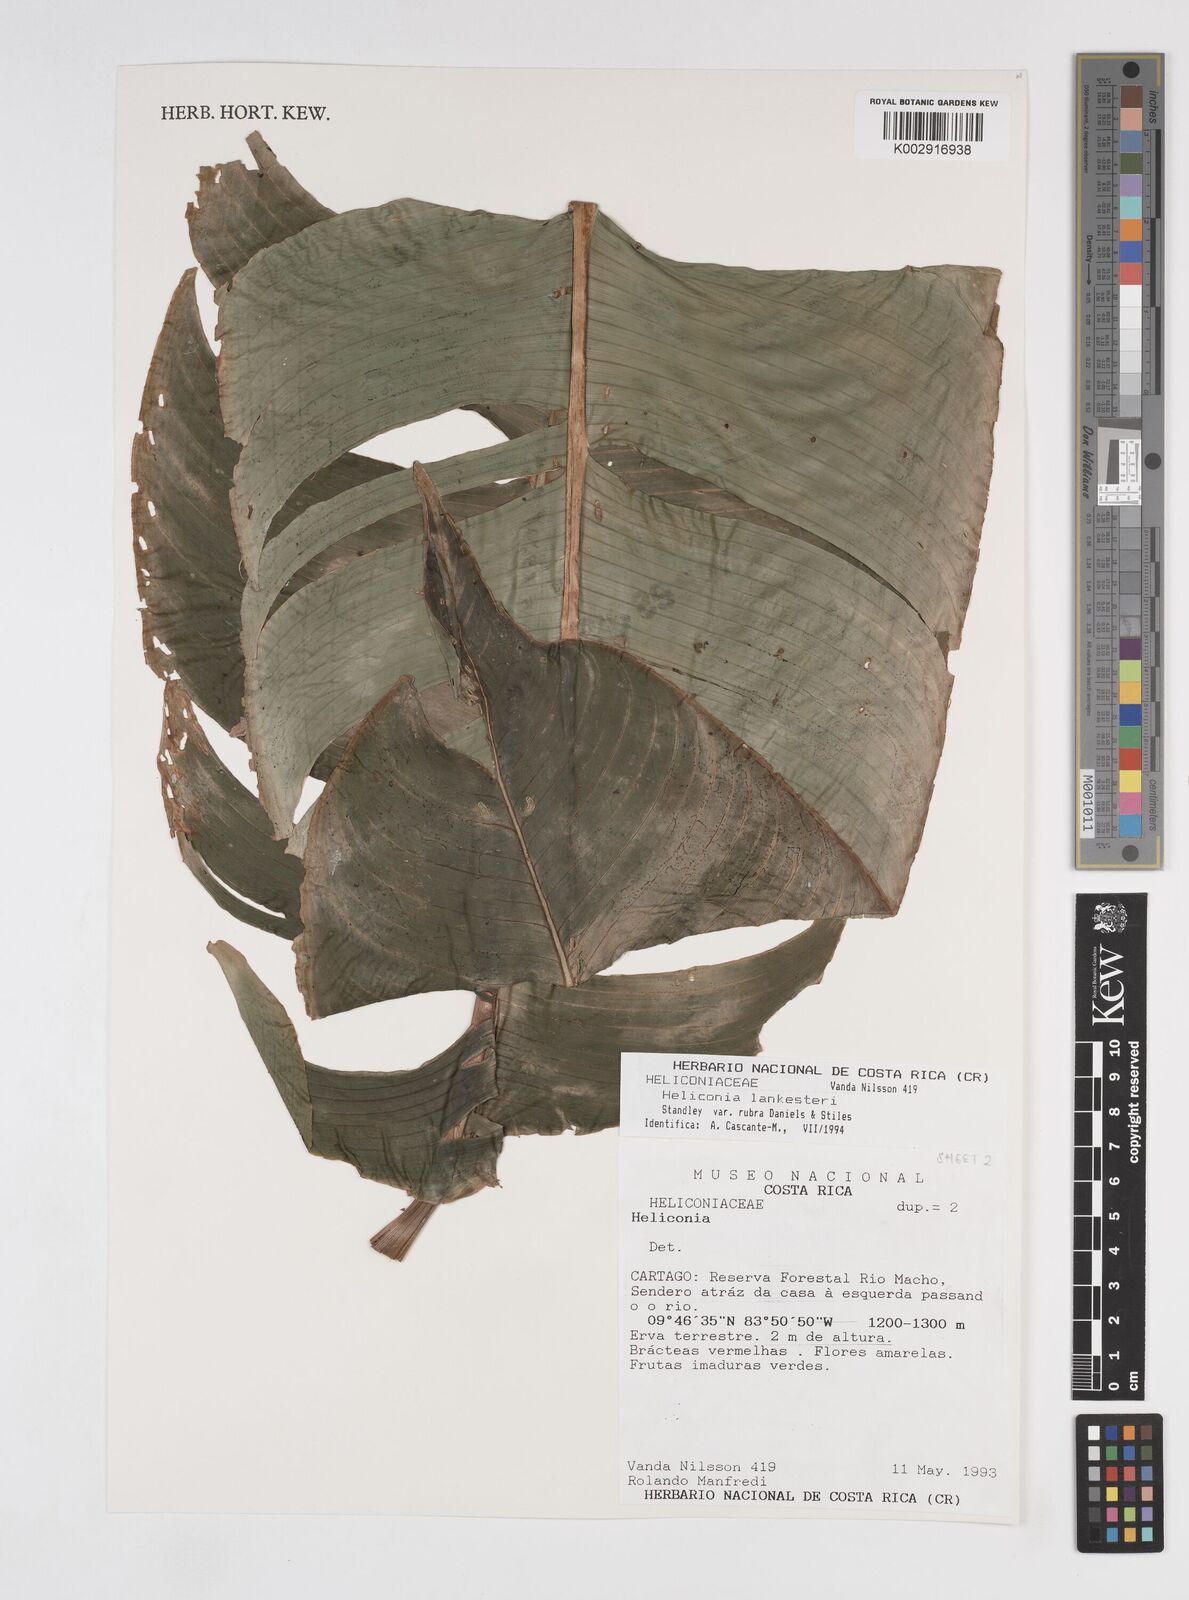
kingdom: Plantae
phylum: Tracheophyta
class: Liliopsida
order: Zingiberales
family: Heliconiaceae
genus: Heliconia
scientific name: Heliconia lankesteri
